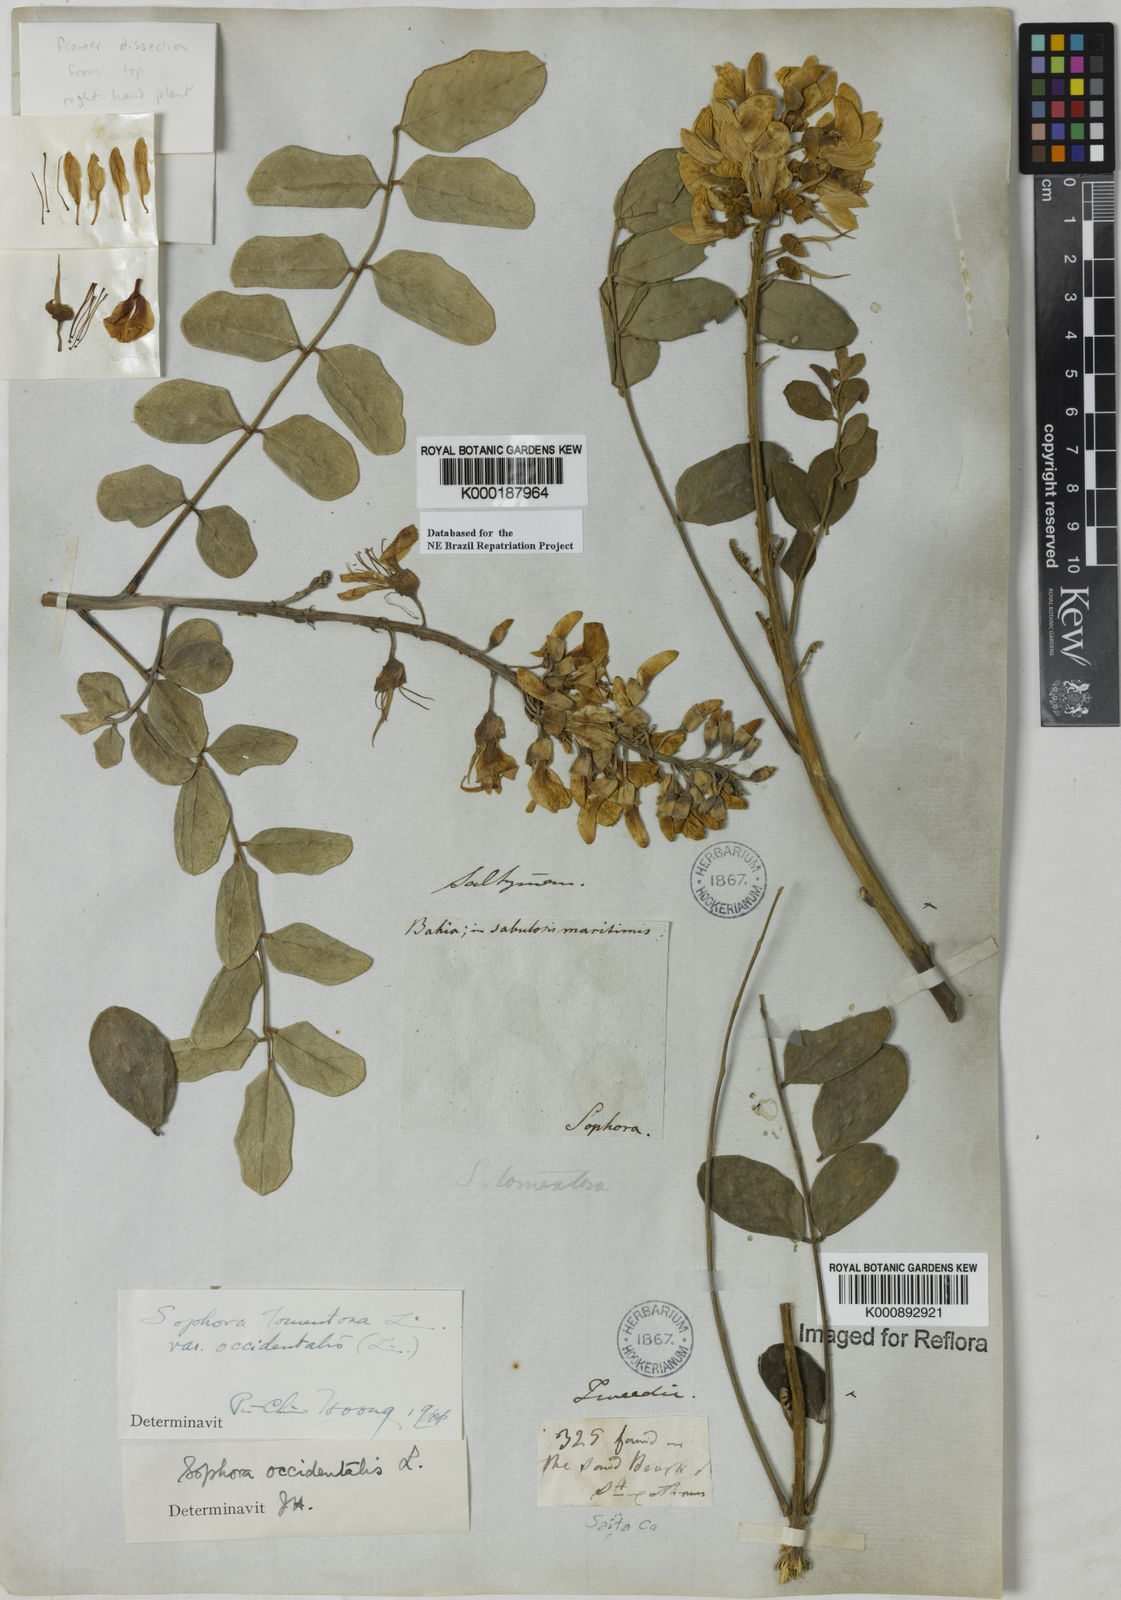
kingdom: Plantae
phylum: Tracheophyta
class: Magnoliopsida
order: Fabales
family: Fabaceae
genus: Sophora
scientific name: Sophora tomentosa
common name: Yellow necklacepod
